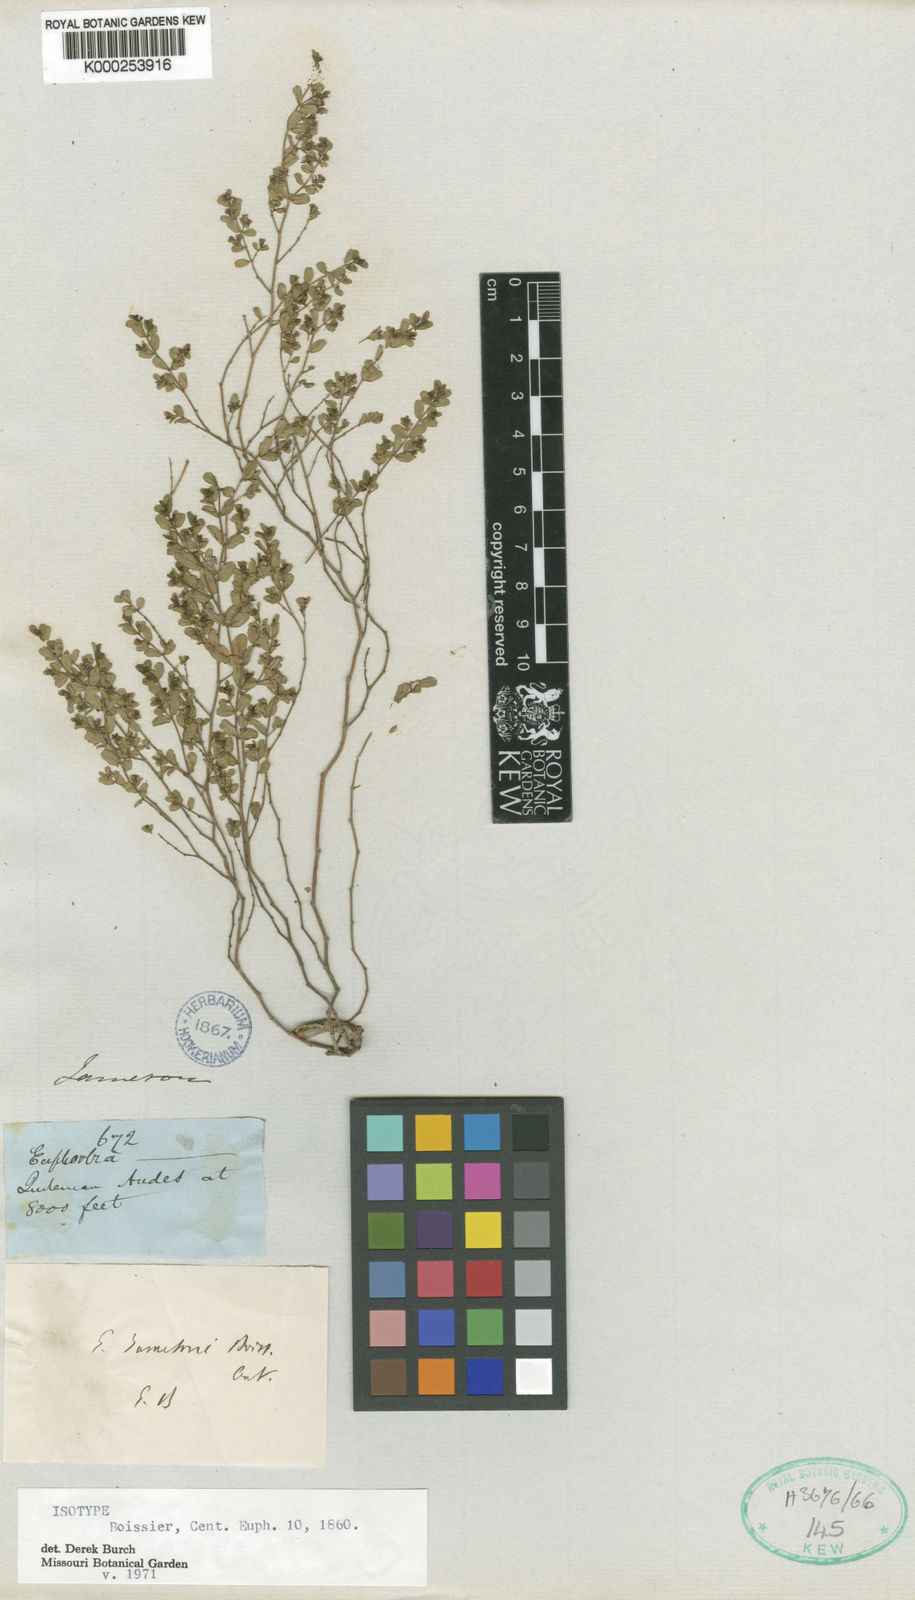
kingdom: Plantae
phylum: Tracheophyta
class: Magnoliopsida
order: Malpighiales
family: Euphorbiaceae
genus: Euphorbia
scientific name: Euphorbia jamesonii
